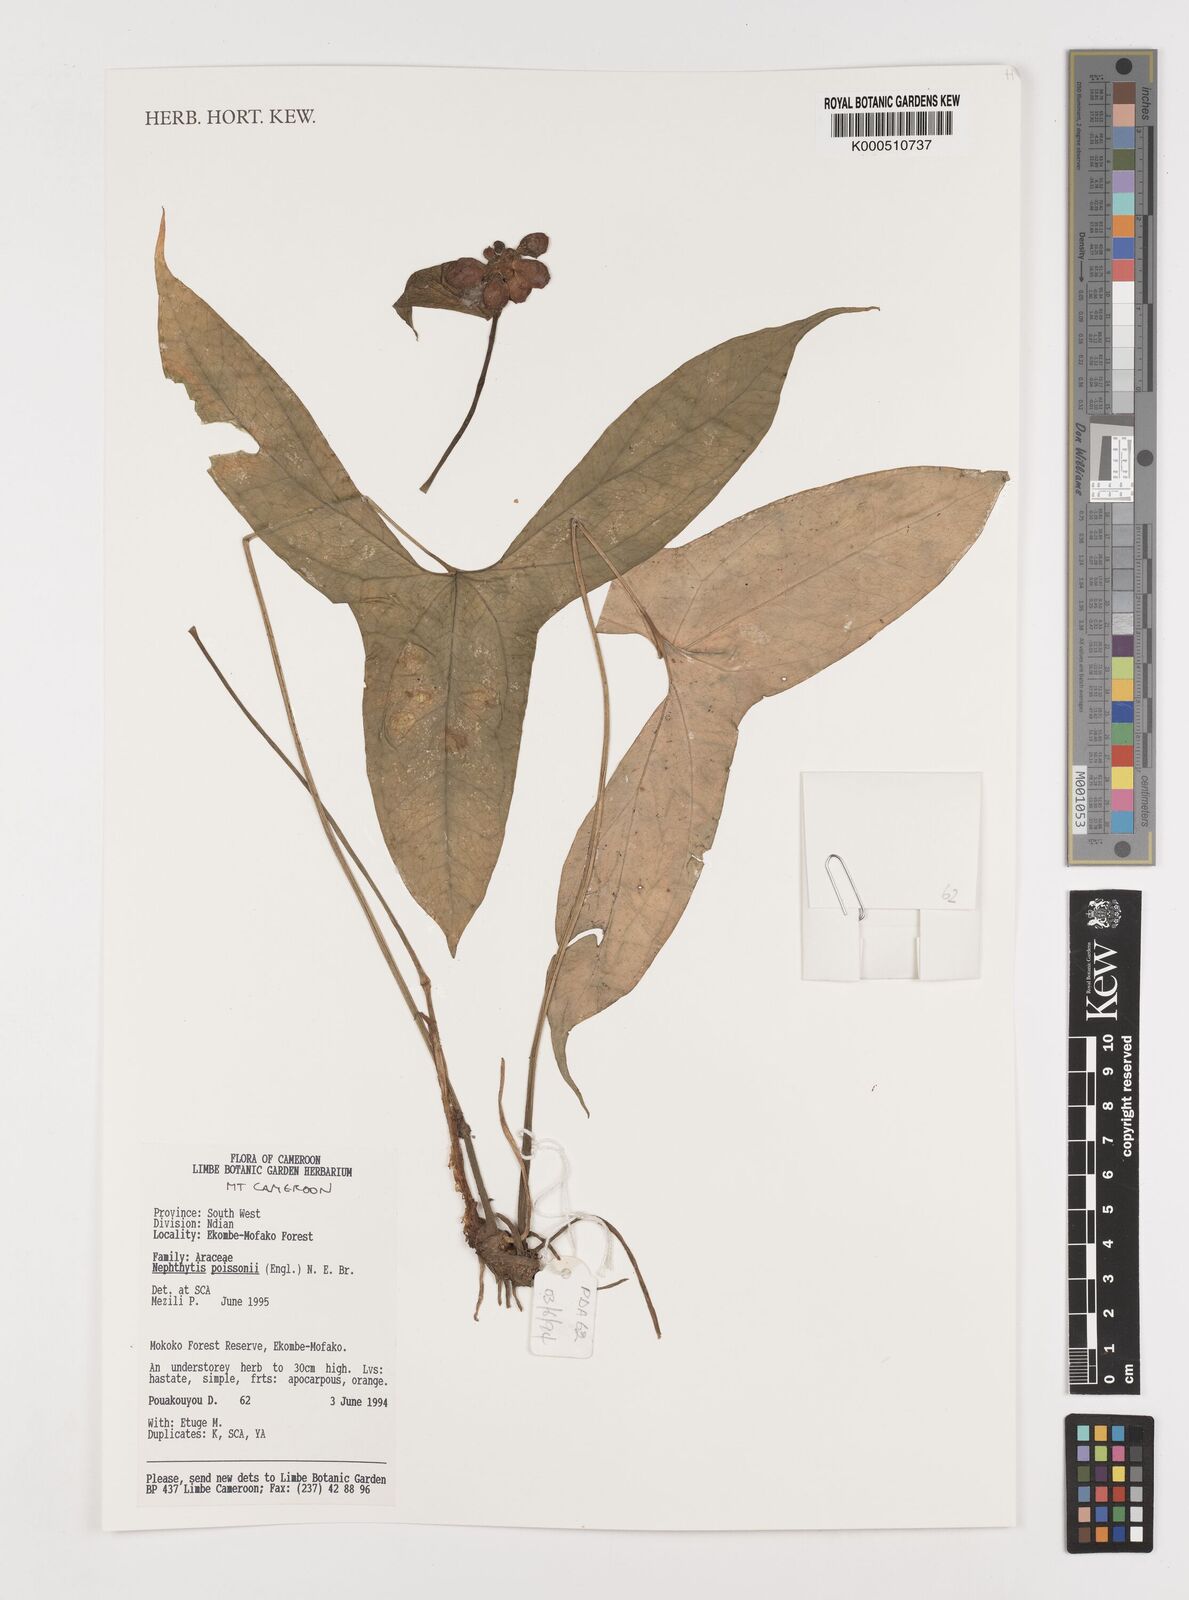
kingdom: Plantae
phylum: Tracheophyta
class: Liliopsida
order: Alismatales
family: Araceae
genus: Nephthytis
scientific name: Nephthytis poissonii
